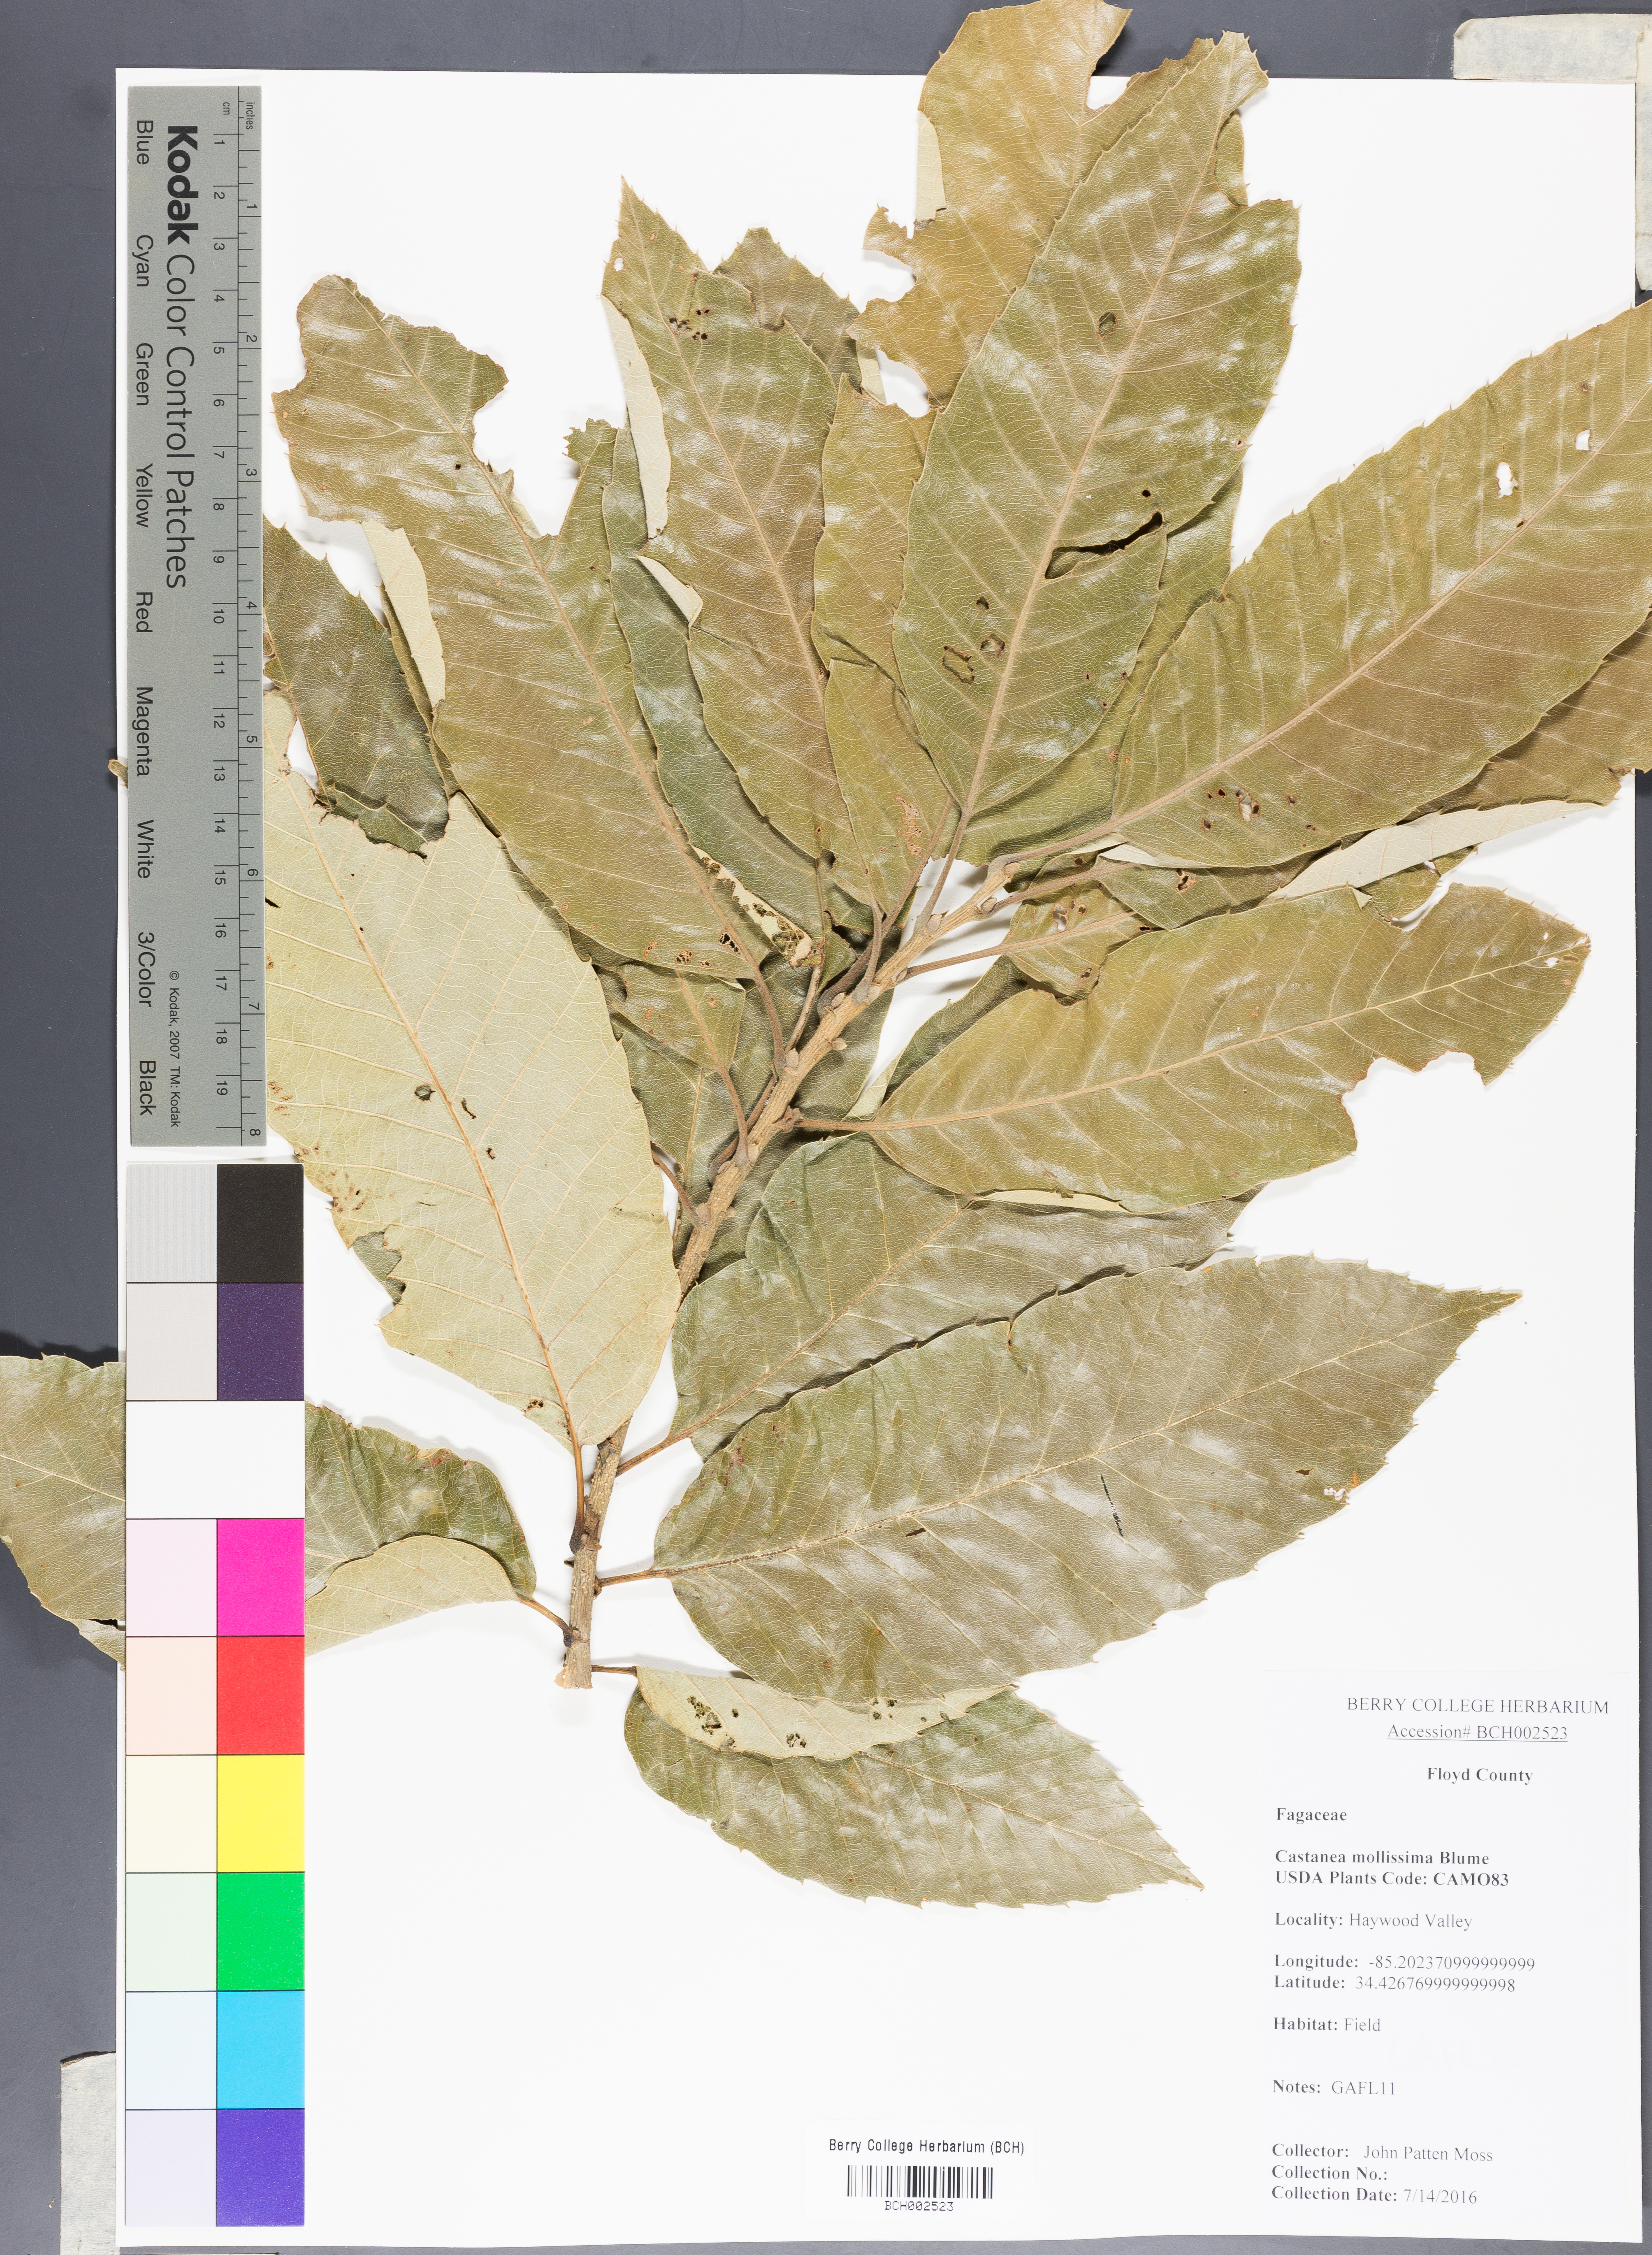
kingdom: Plantae
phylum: Tracheophyta
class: Magnoliopsida
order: Fagales
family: Fagaceae
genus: Castanea
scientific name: Castanea mollissima
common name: Chinese chestnut
